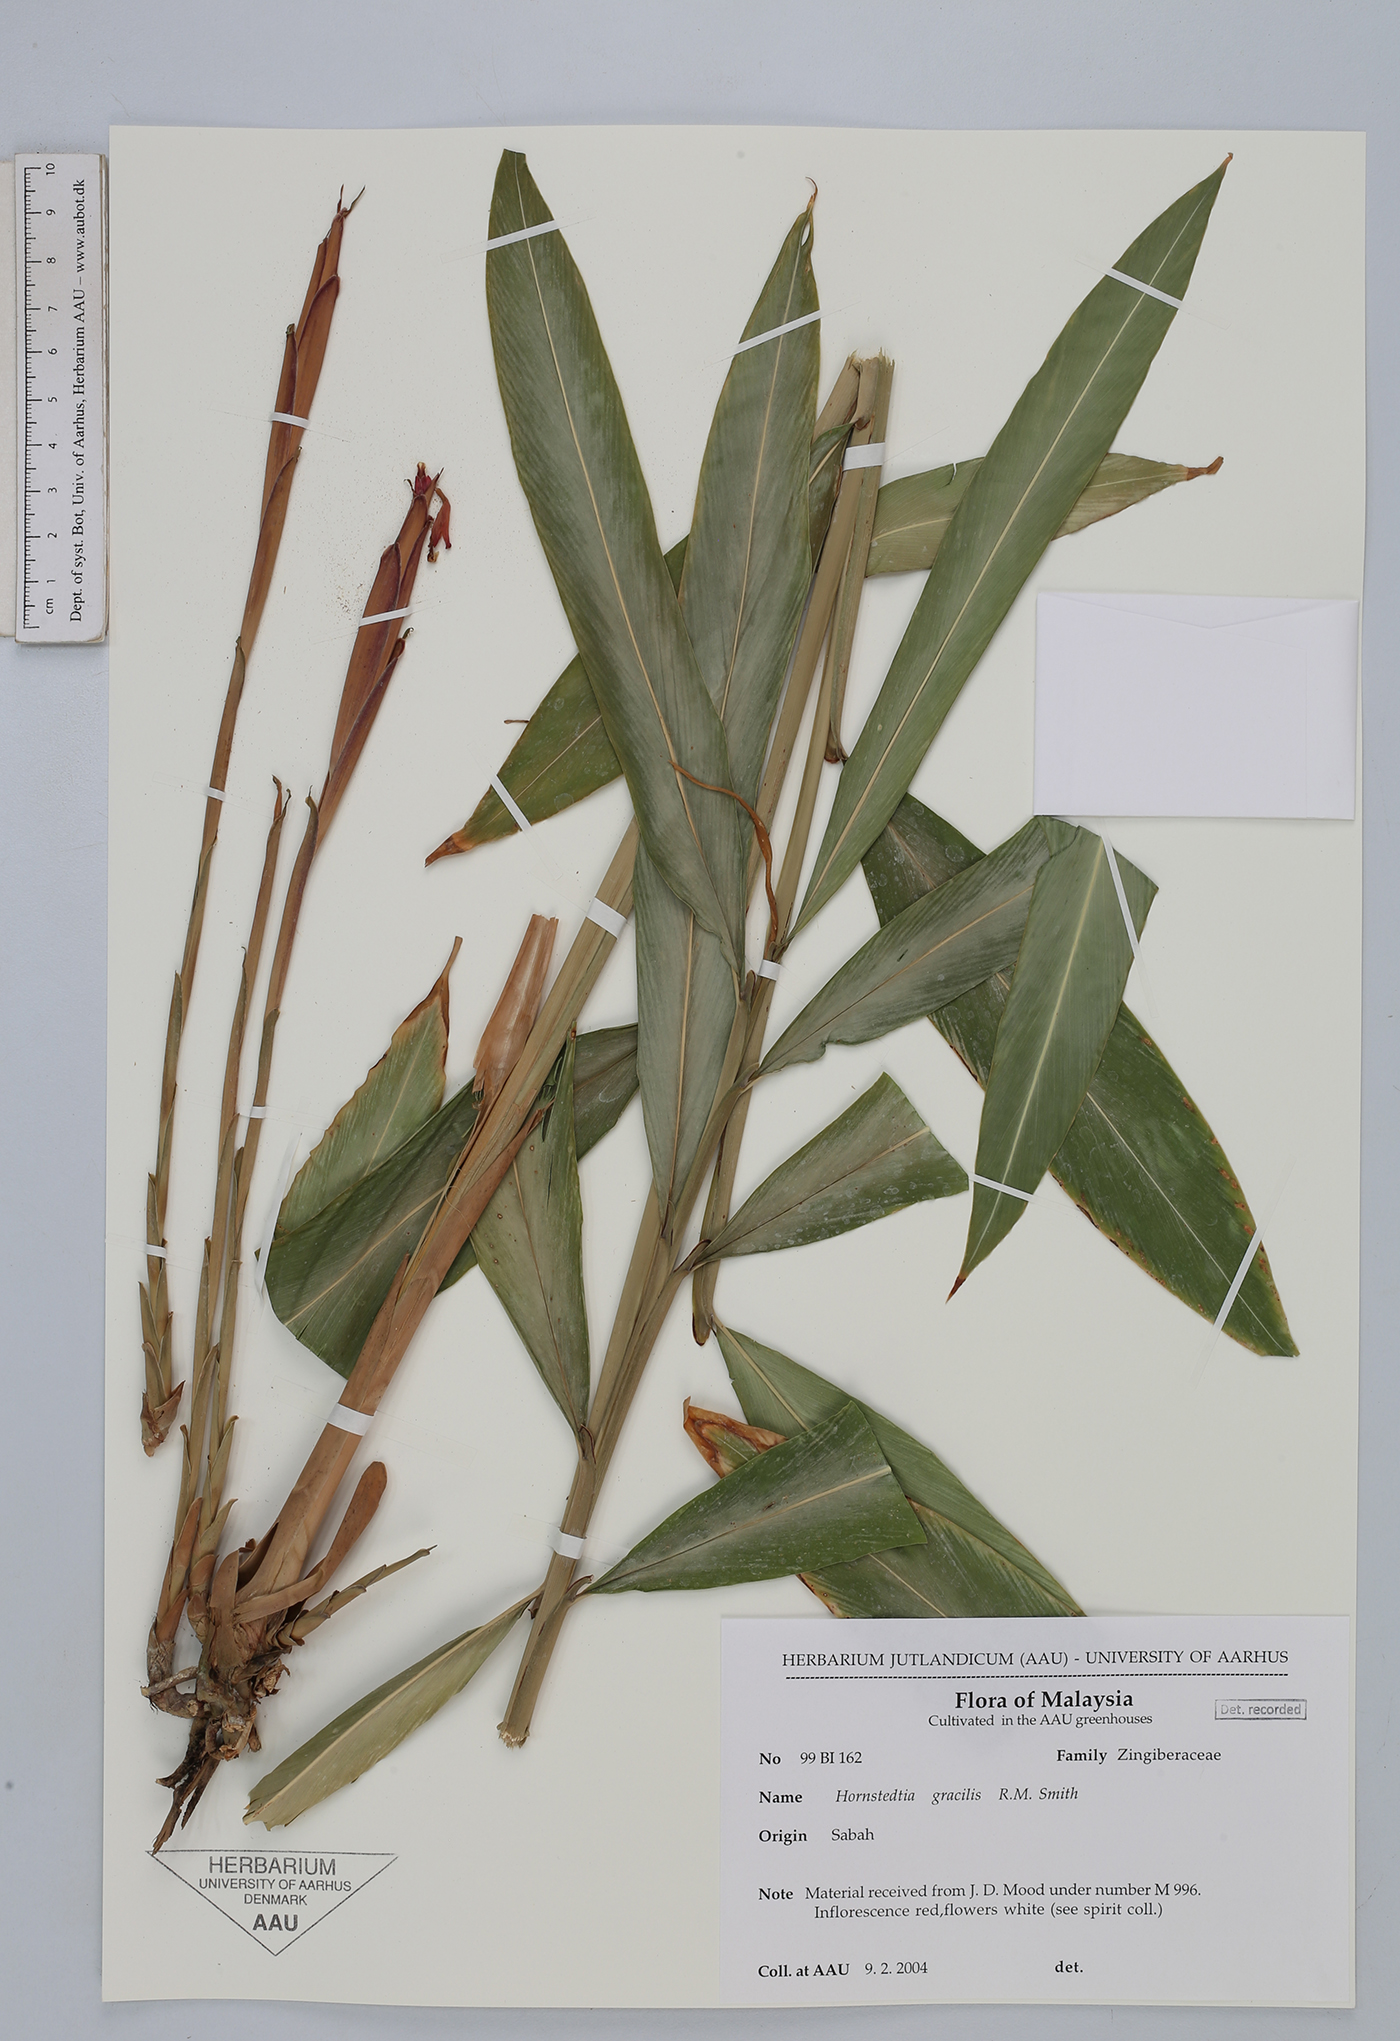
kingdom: Plantae
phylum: Tracheophyta
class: Liliopsida
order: Zingiberales
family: Zingiberaceae
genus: Hornstedtia
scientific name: Hornstedtia gracilis
